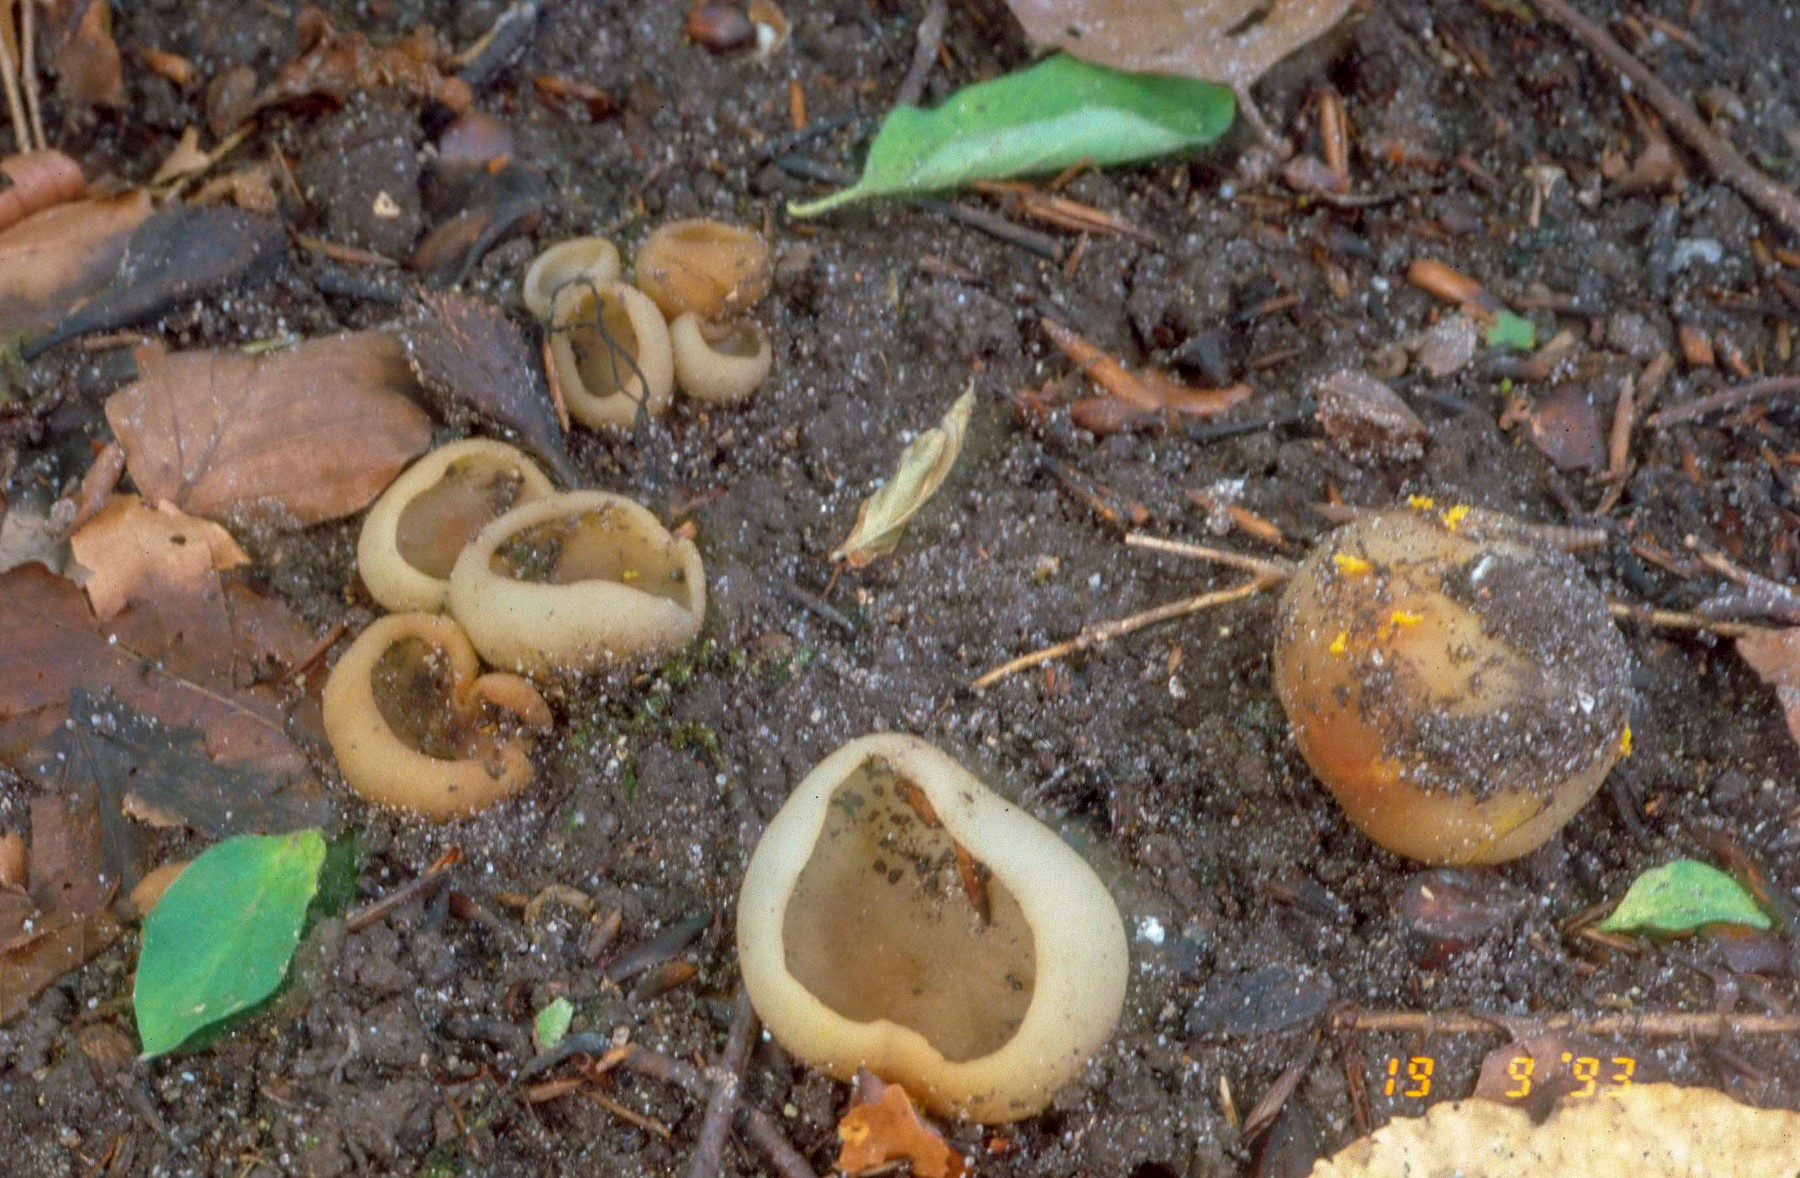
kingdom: Fungi
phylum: Ascomycota
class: Pezizomycetes
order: Pezizales
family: Pezizaceae
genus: Paragalactinia
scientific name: Paragalactinia succosa
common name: gulmælket bægersvamp
